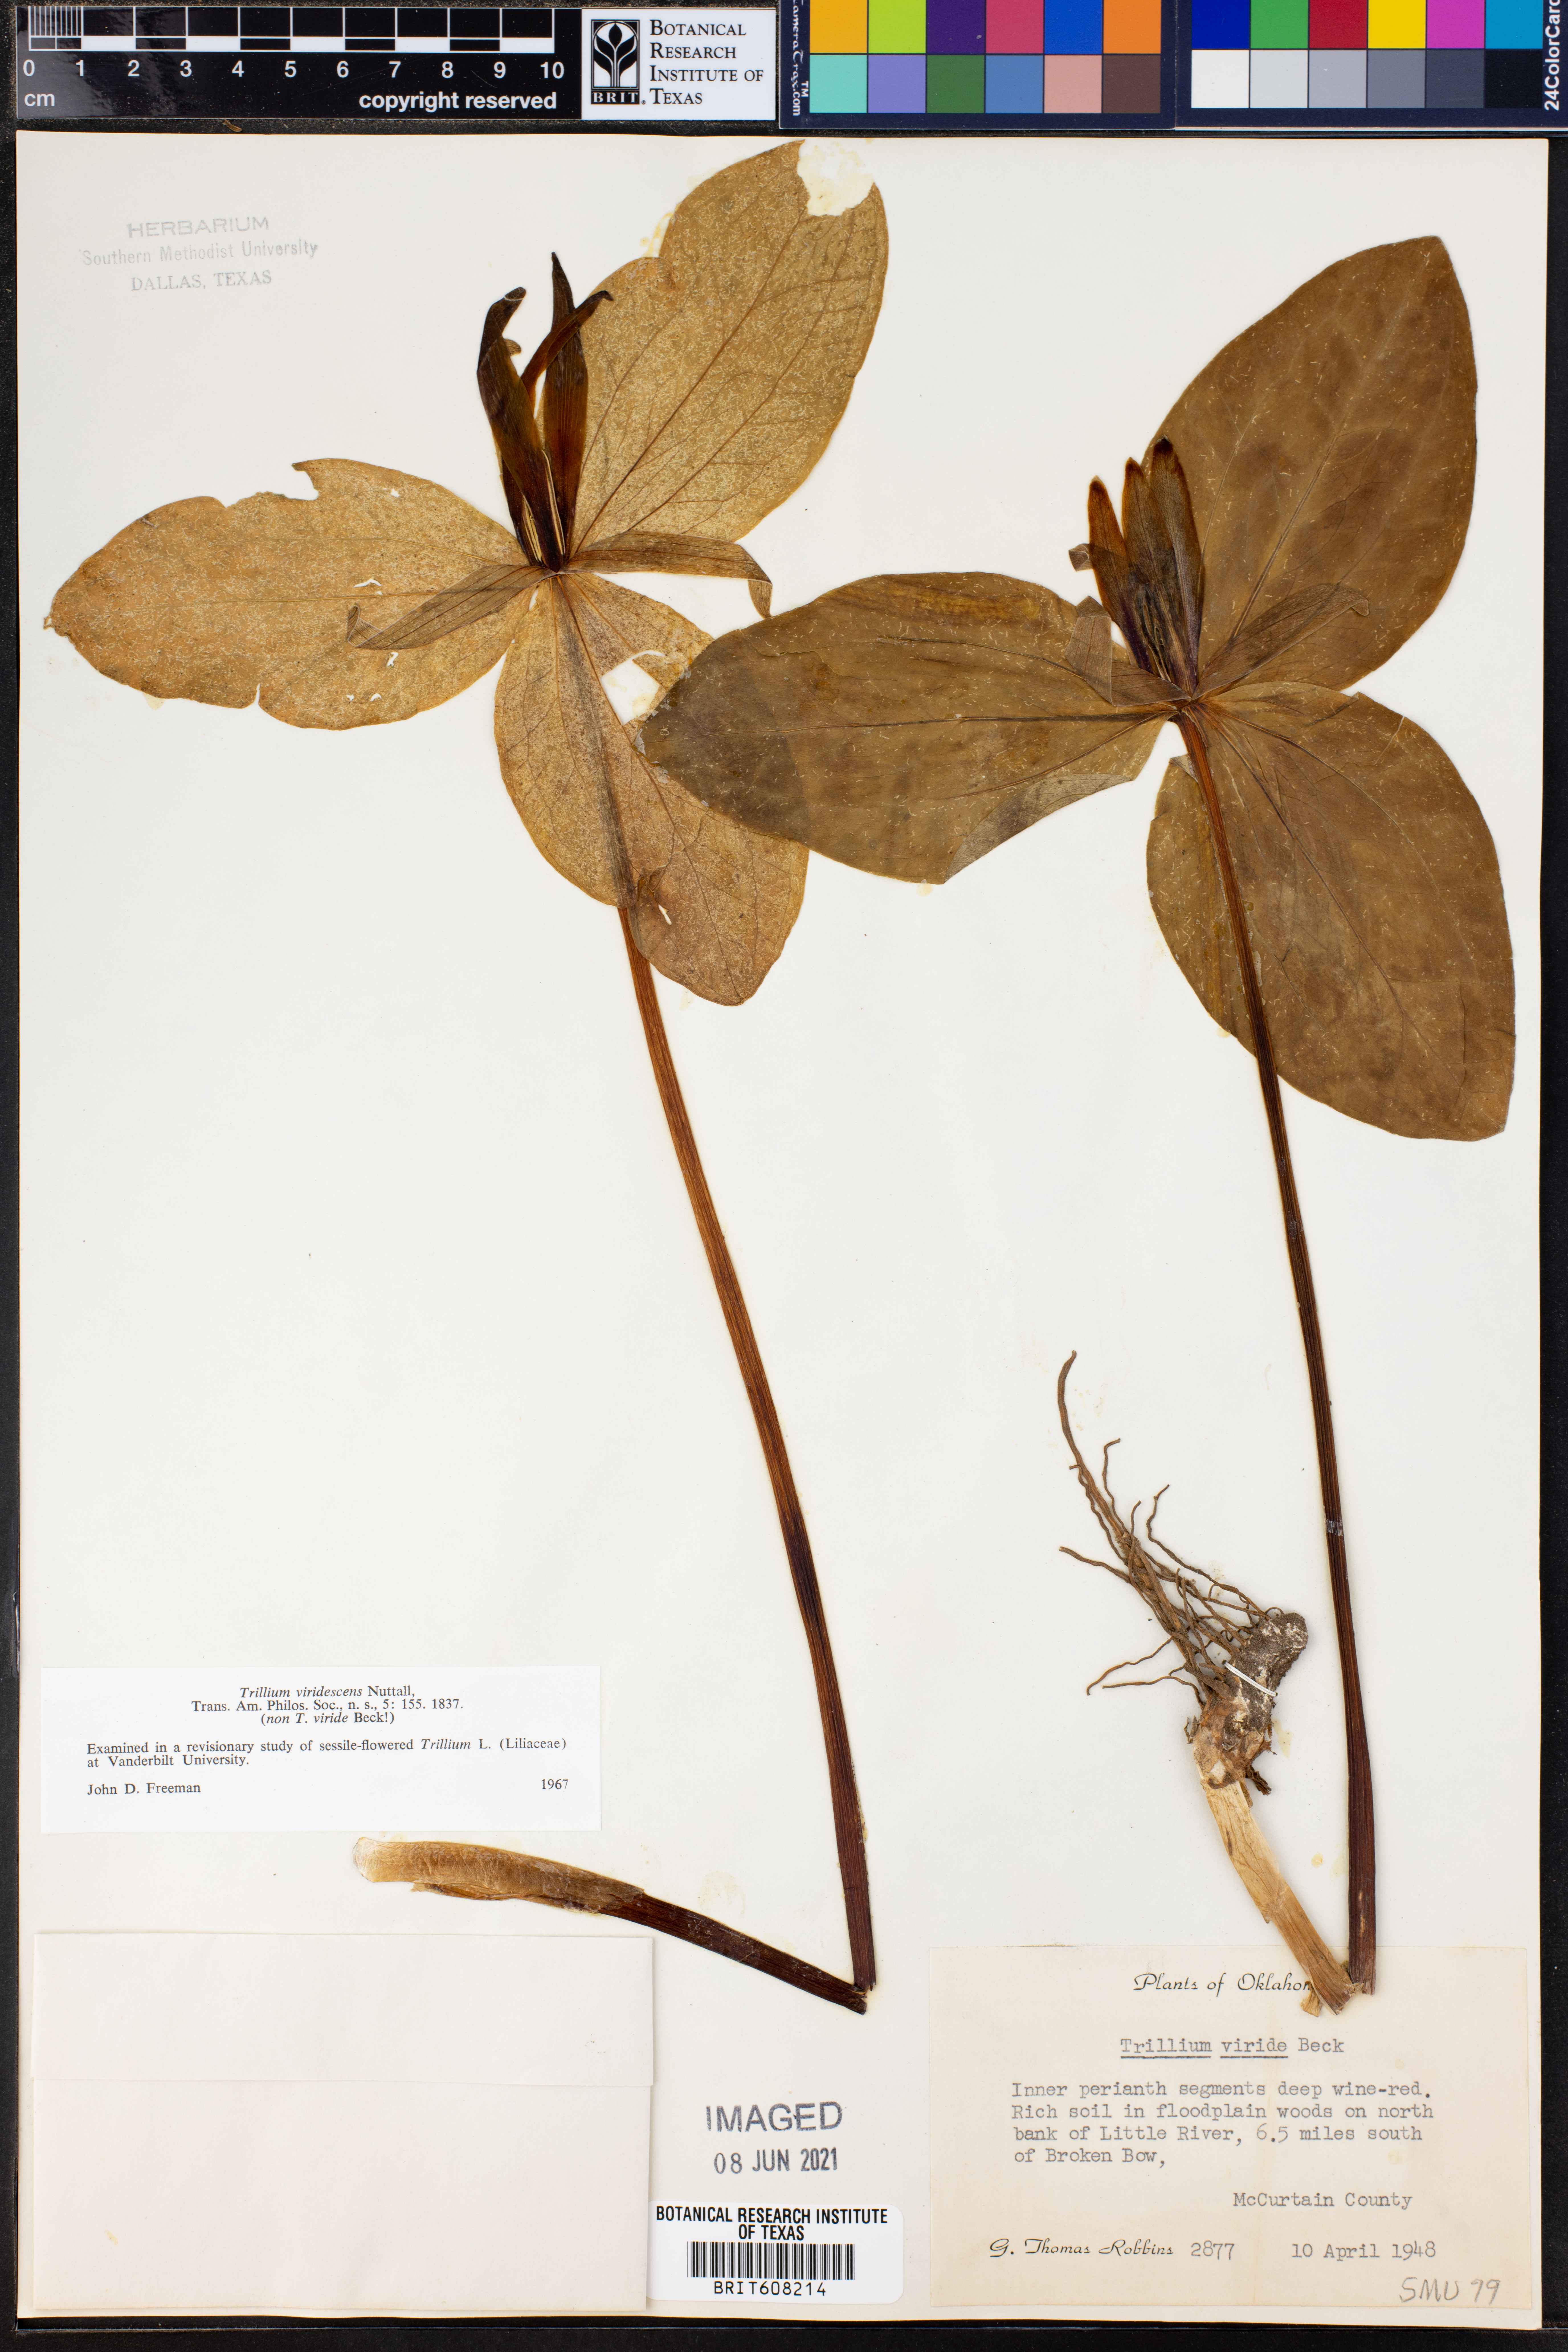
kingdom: Plantae
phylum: Tracheophyta
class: Liliopsida
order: Liliales
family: Melanthiaceae
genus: Trillium
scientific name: Trillium viridescens
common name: Ozark green trillium
